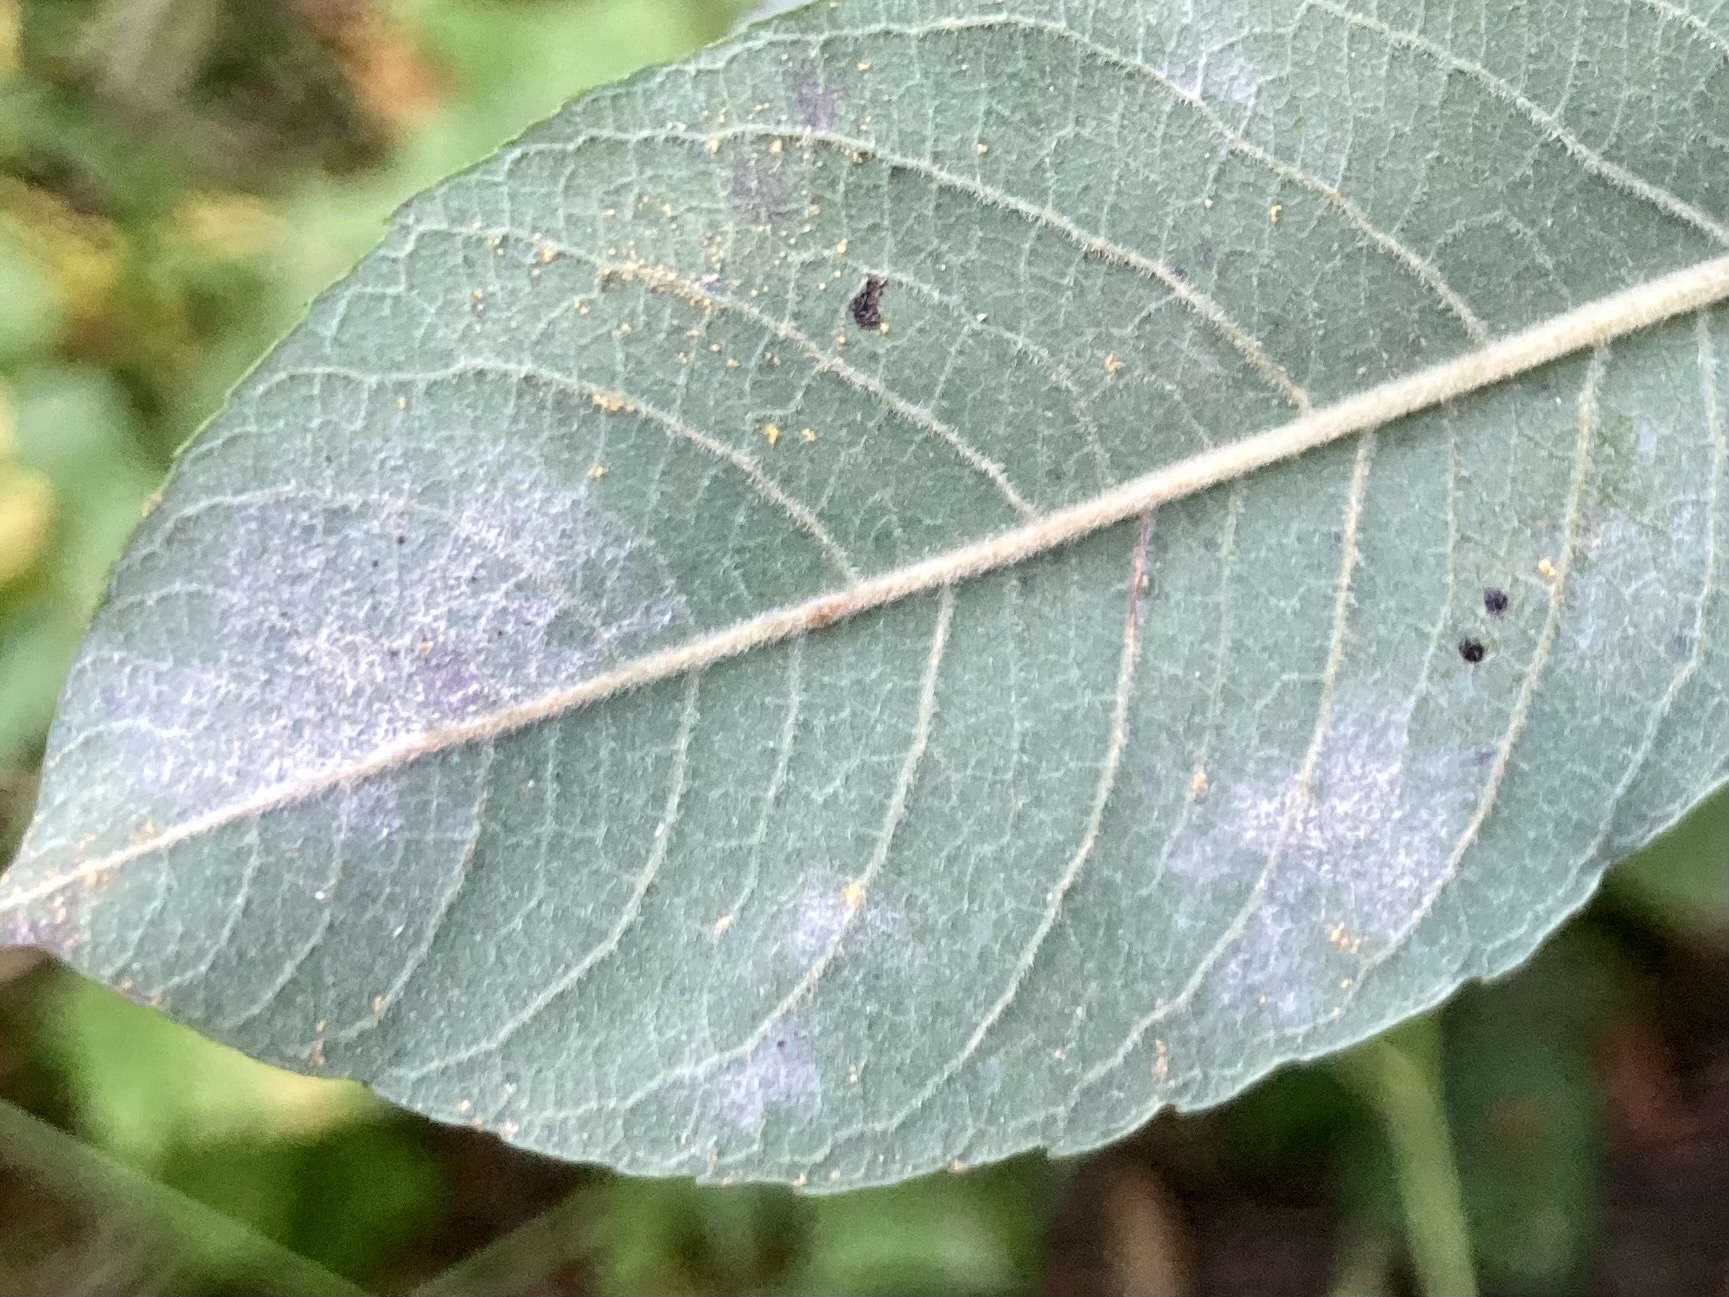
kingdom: Fungi
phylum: Ascomycota
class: Leotiomycetes
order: Helotiales
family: Erysiphaceae
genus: Erysiphe
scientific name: Erysiphe adunca
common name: pile-meldug
